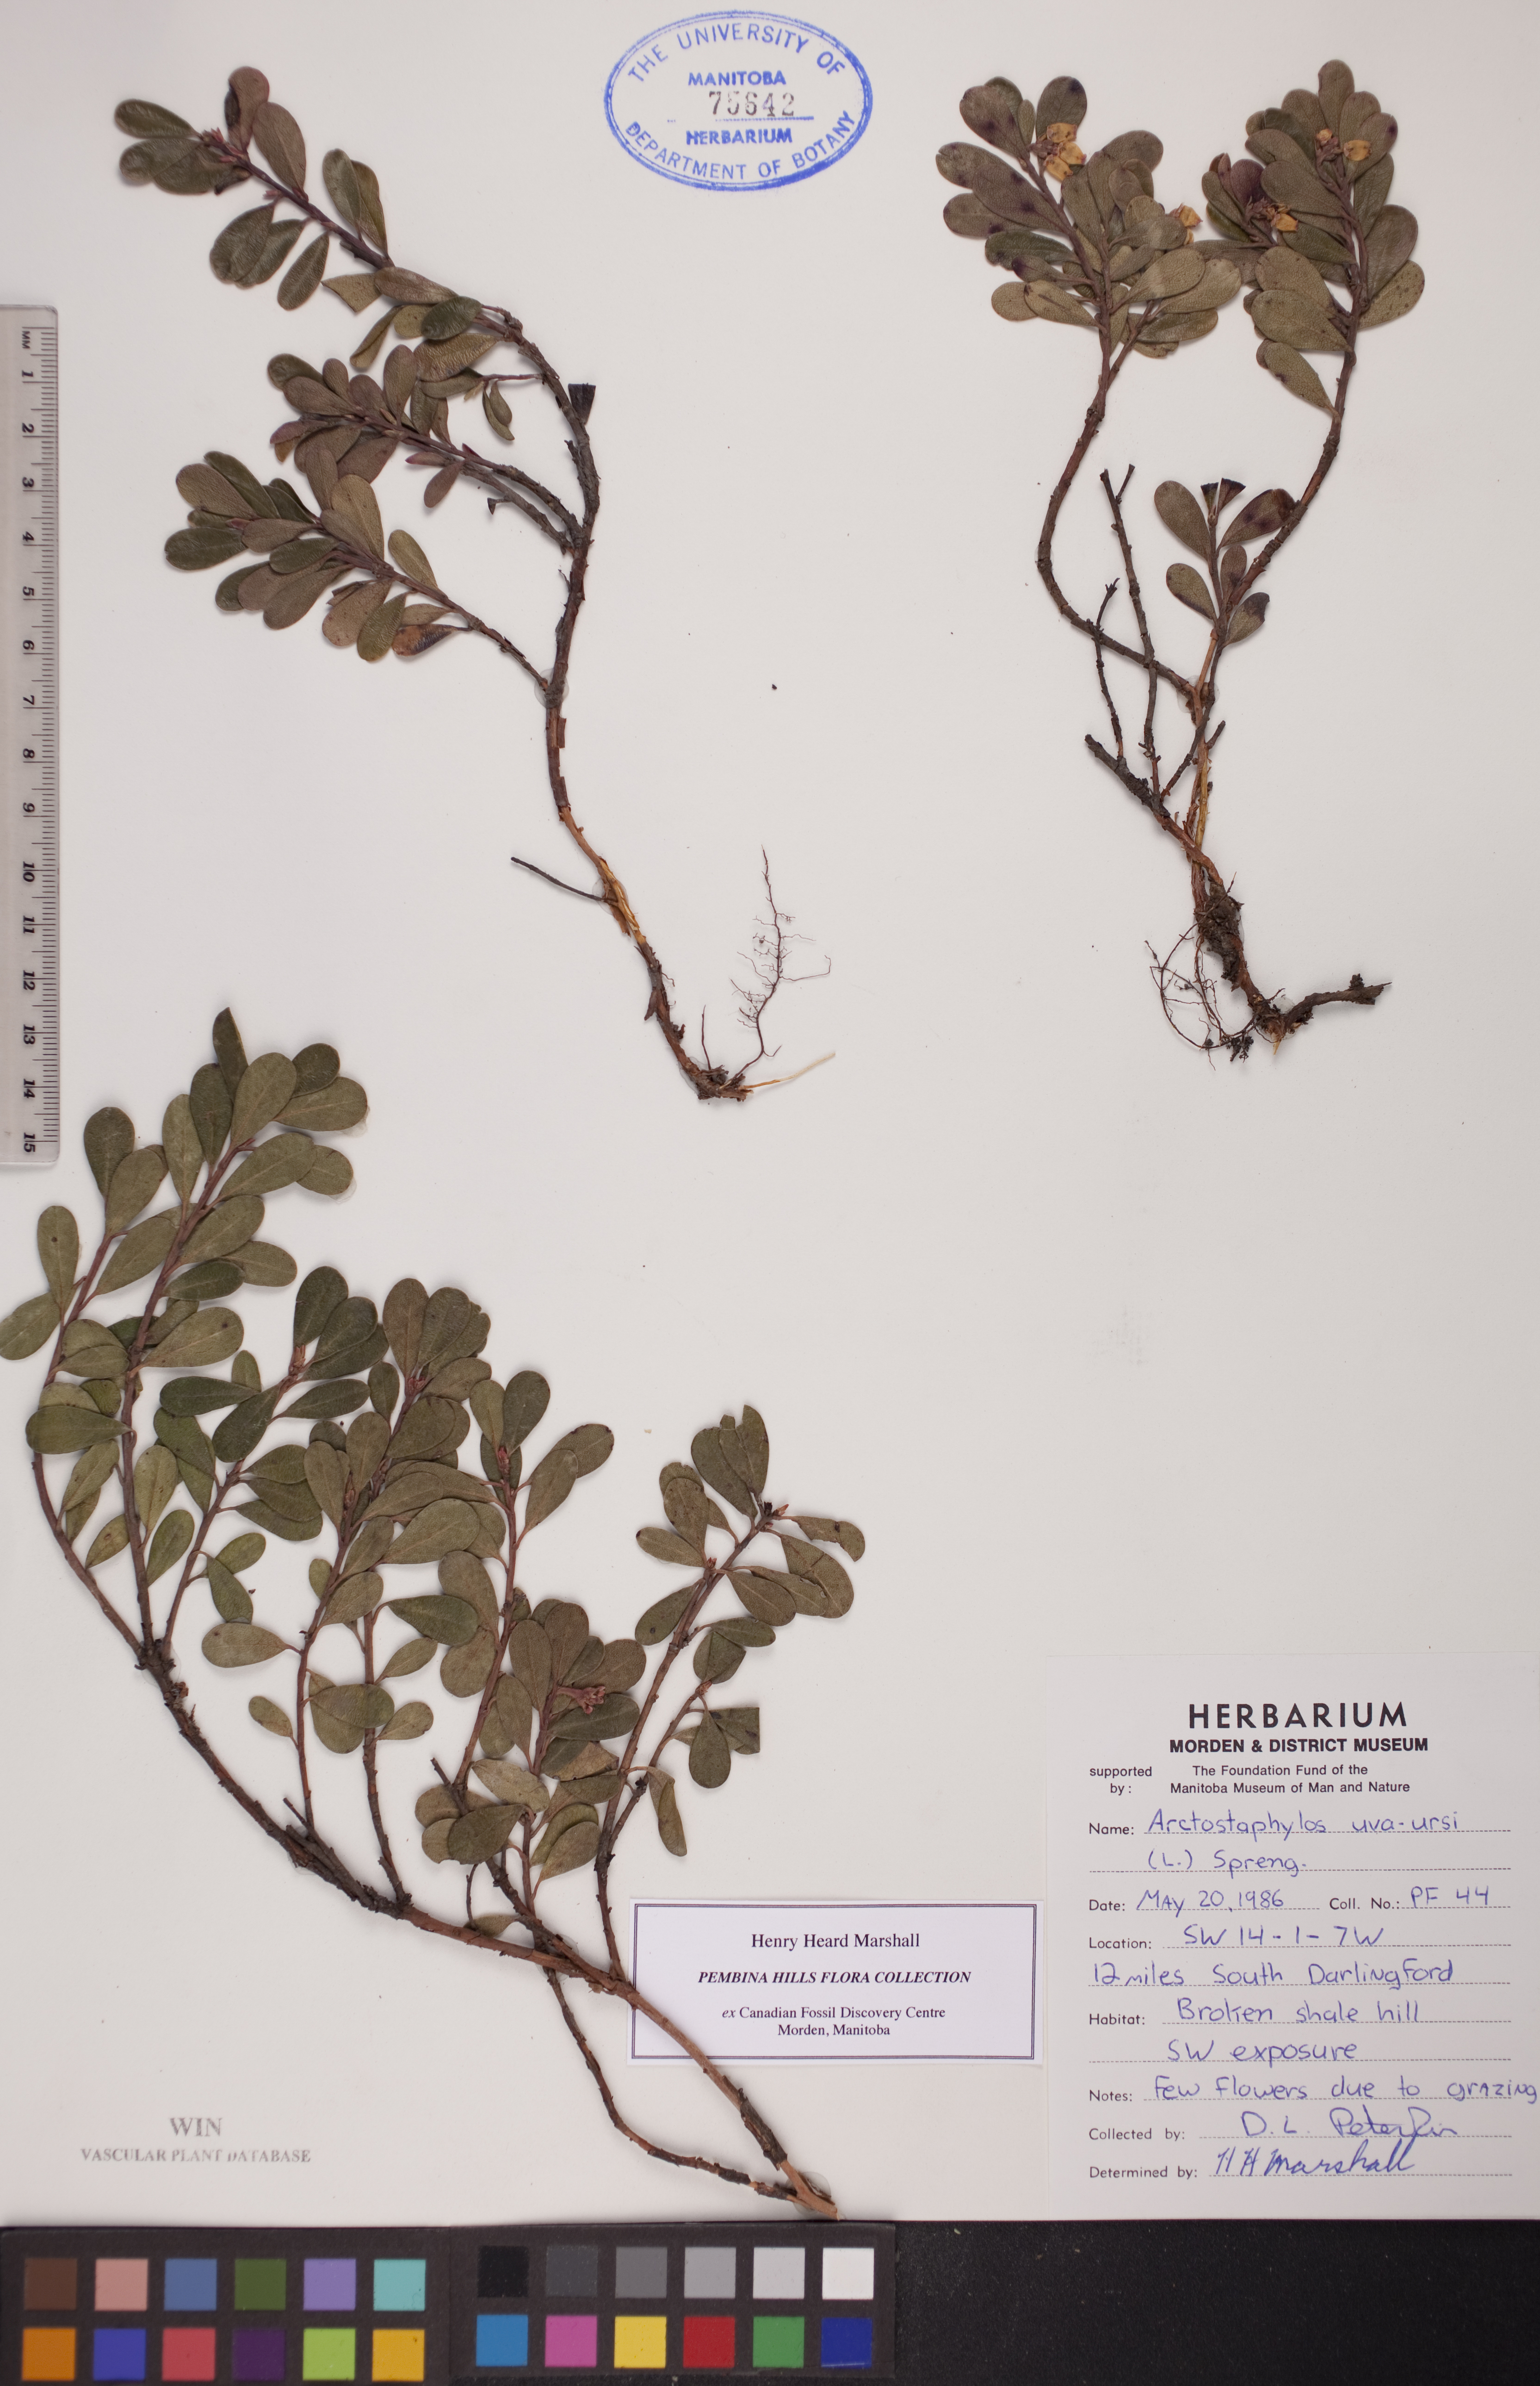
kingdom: Plantae
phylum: Tracheophyta
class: Magnoliopsida
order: Ericales
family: Ericaceae
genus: Arctostaphylos
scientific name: Arctostaphylos uva-ursi
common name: Bearberry
